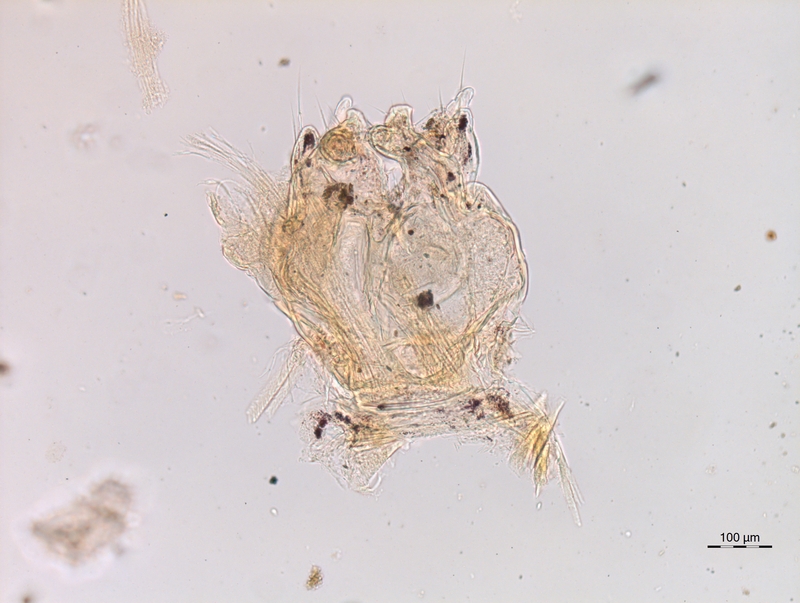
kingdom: Animalia
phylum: Arthropoda
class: Diplopoda
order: Chordeumatida
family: Chordeumatidae
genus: Melogona
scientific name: Melogona broelemanni
